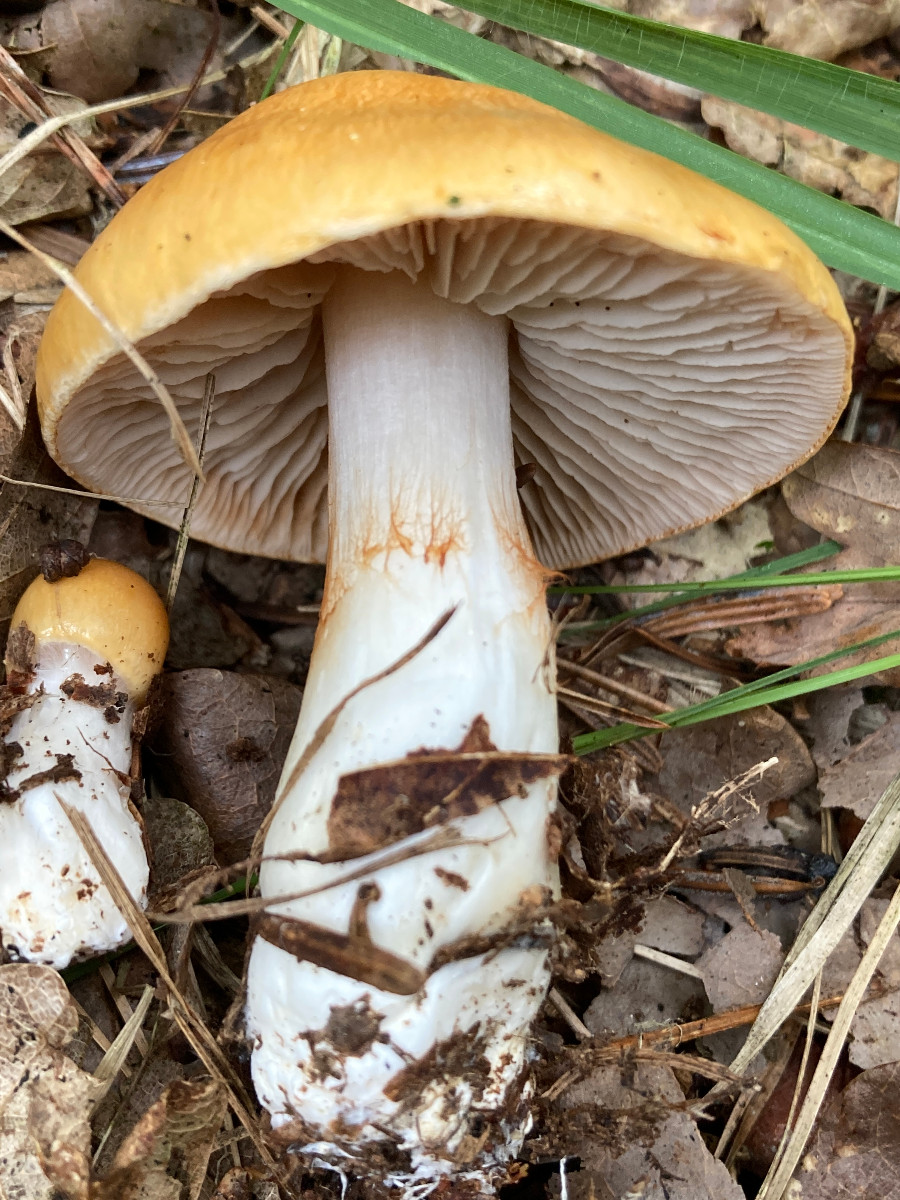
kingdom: Fungi
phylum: Basidiomycota
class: Agaricomycetes
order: Agaricales
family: Cortinariaceae
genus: Thaxterogaster
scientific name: Thaxterogaster
